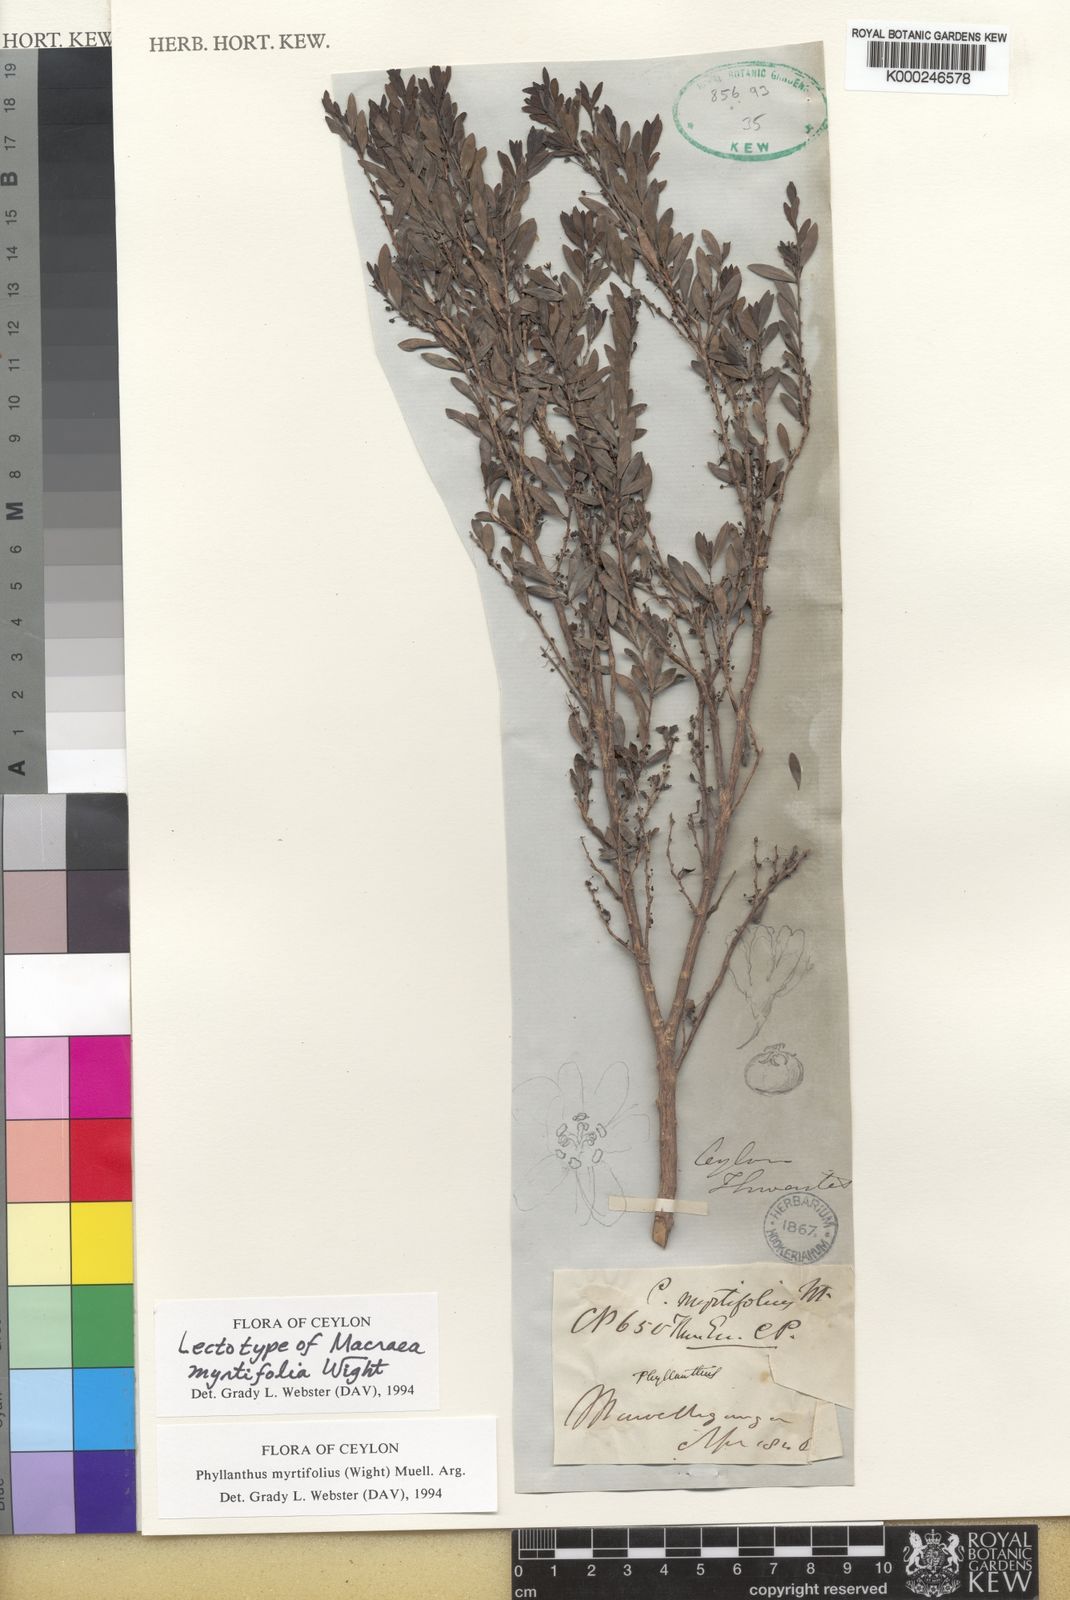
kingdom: Plantae
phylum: Tracheophyta
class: Magnoliopsida
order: Malpighiales
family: Phyllanthaceae
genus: Phyllanthus
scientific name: Phyllanthus
